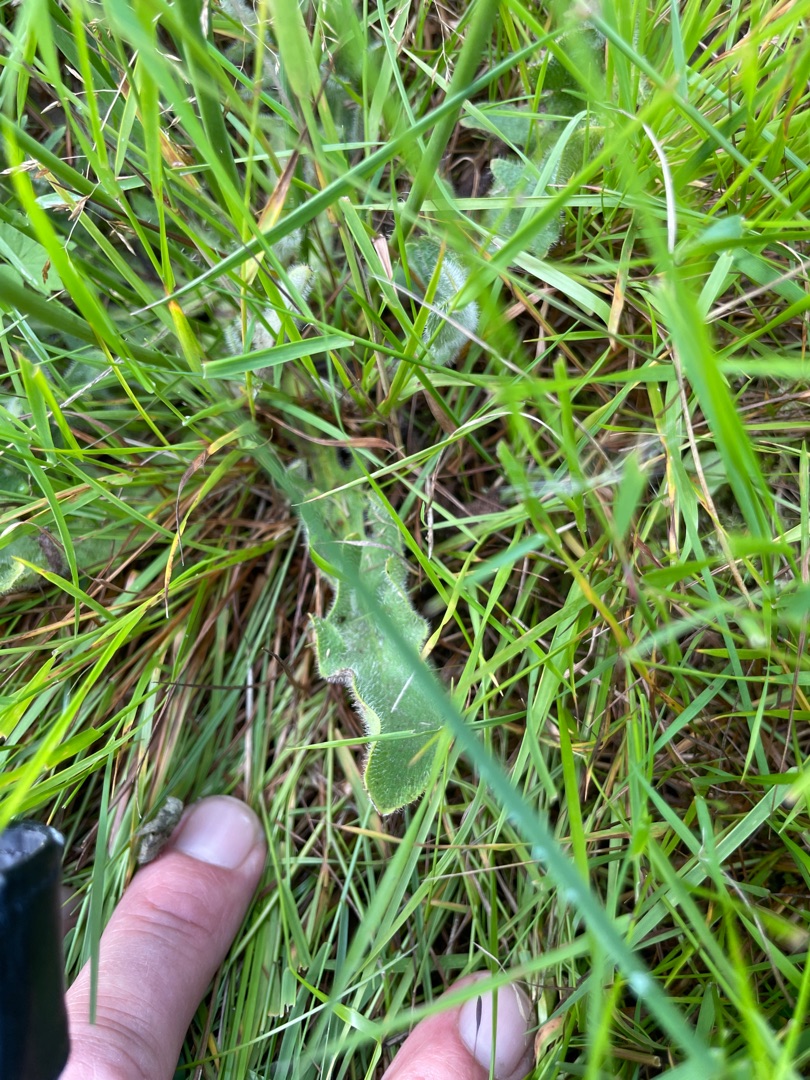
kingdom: Plantae
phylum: Tracheophyta
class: Magnoliopsida
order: Asterales
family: Asteraceae
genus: Hypochaeris
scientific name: Hypochaeris radicata
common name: Almindelig kongepen
